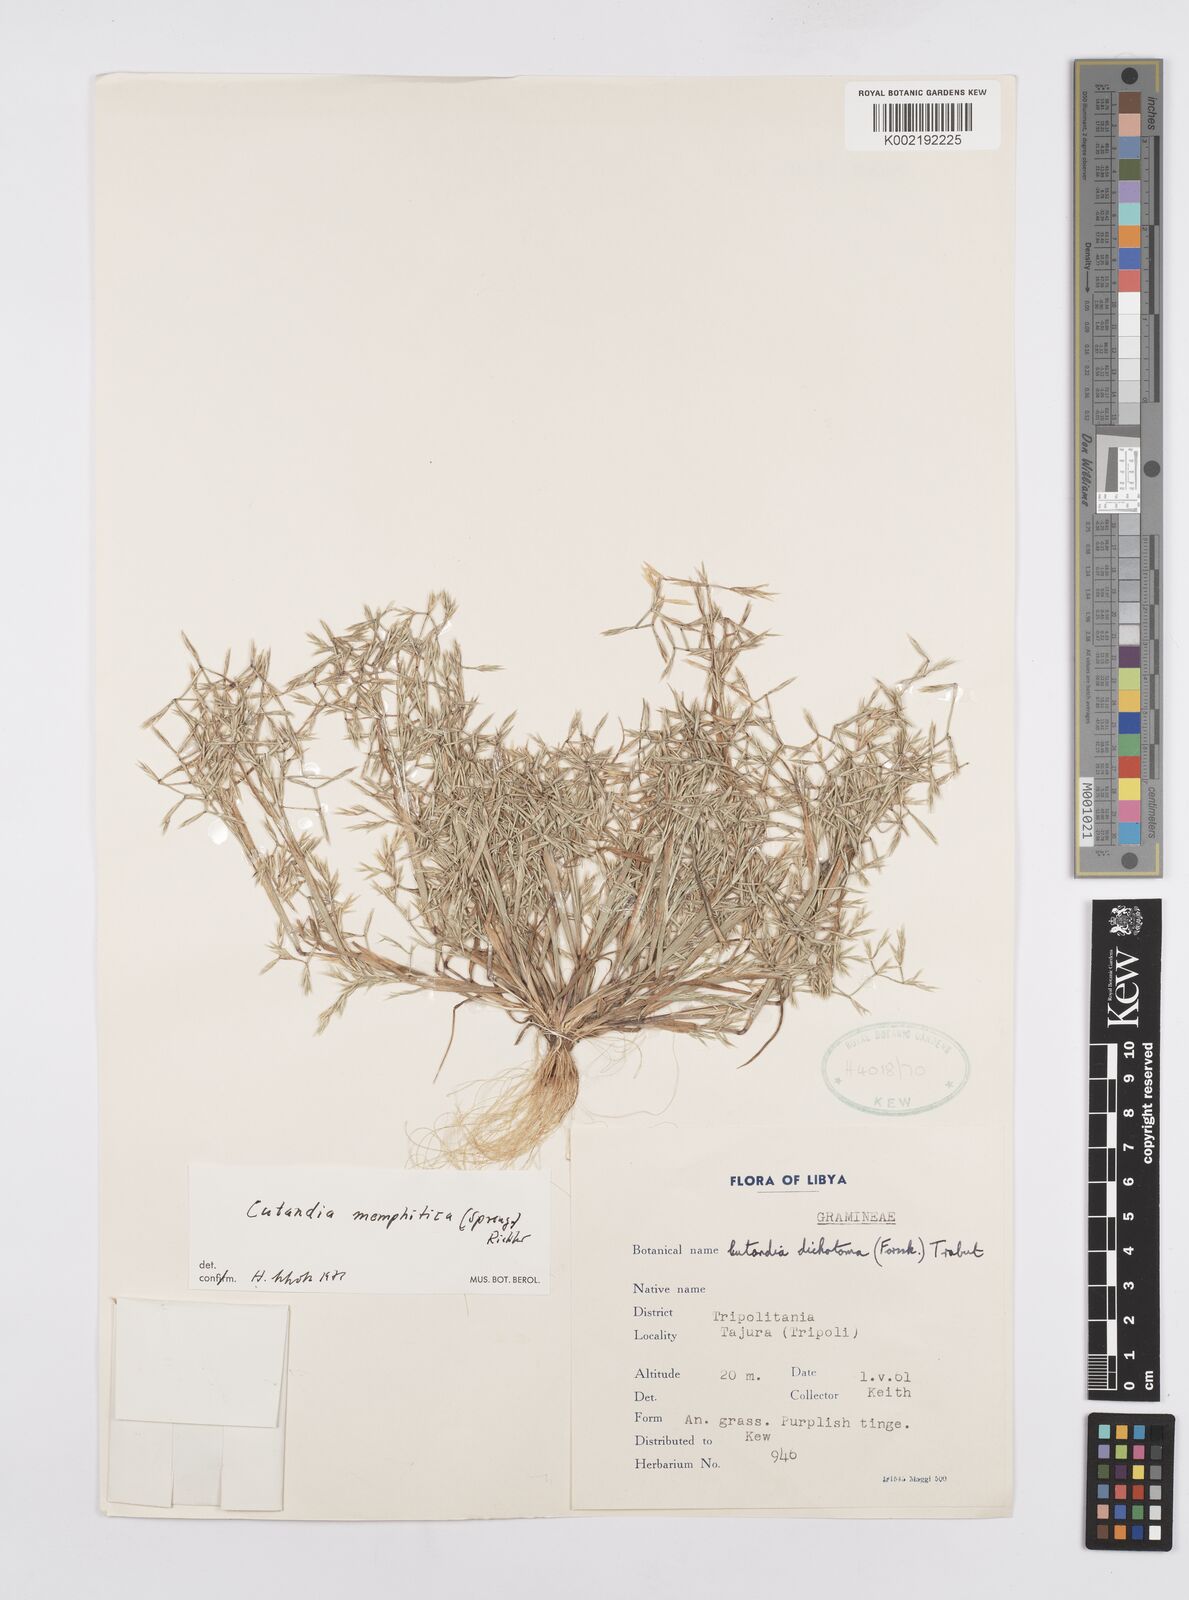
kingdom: Plantae
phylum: Tracheophyta
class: Liliopsida
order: Poales
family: Poaceae
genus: Cutandia
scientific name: Cutandia memphitica
